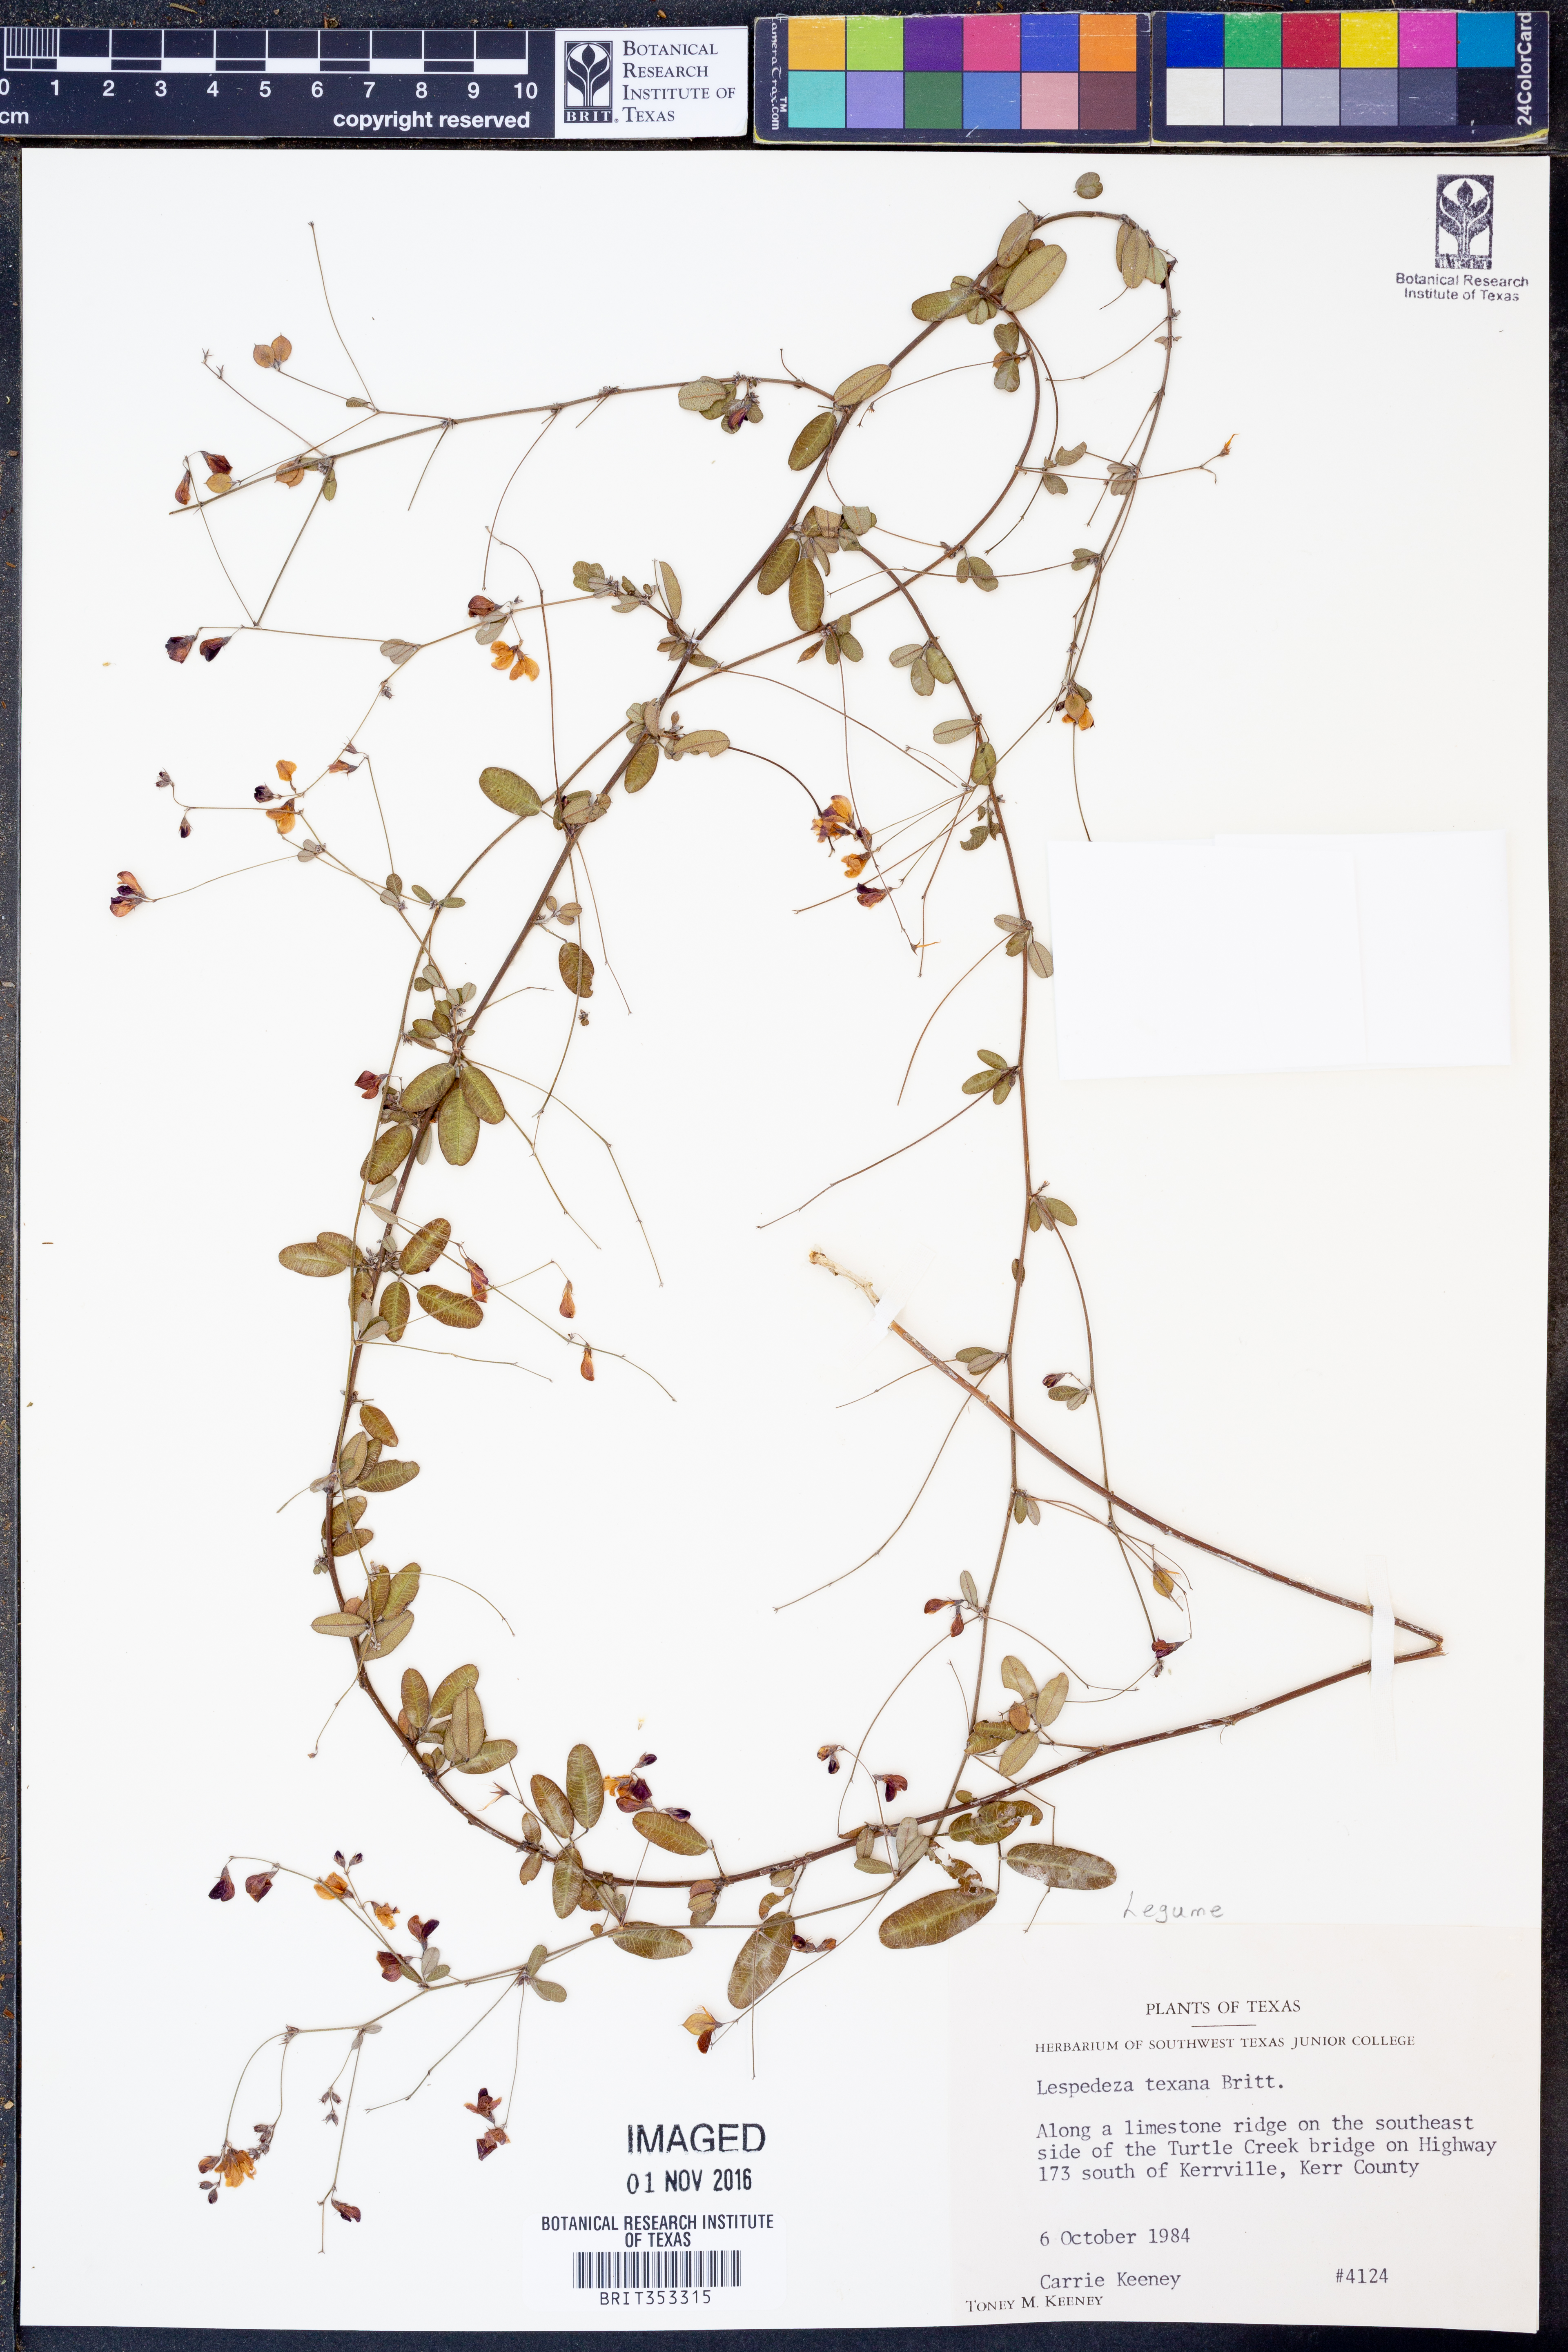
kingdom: Plantae
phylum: Tracheophyta
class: Magnoliopsida
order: Fabales
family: Fabaceae
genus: Lespedeza
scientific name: Lespedeza texana
